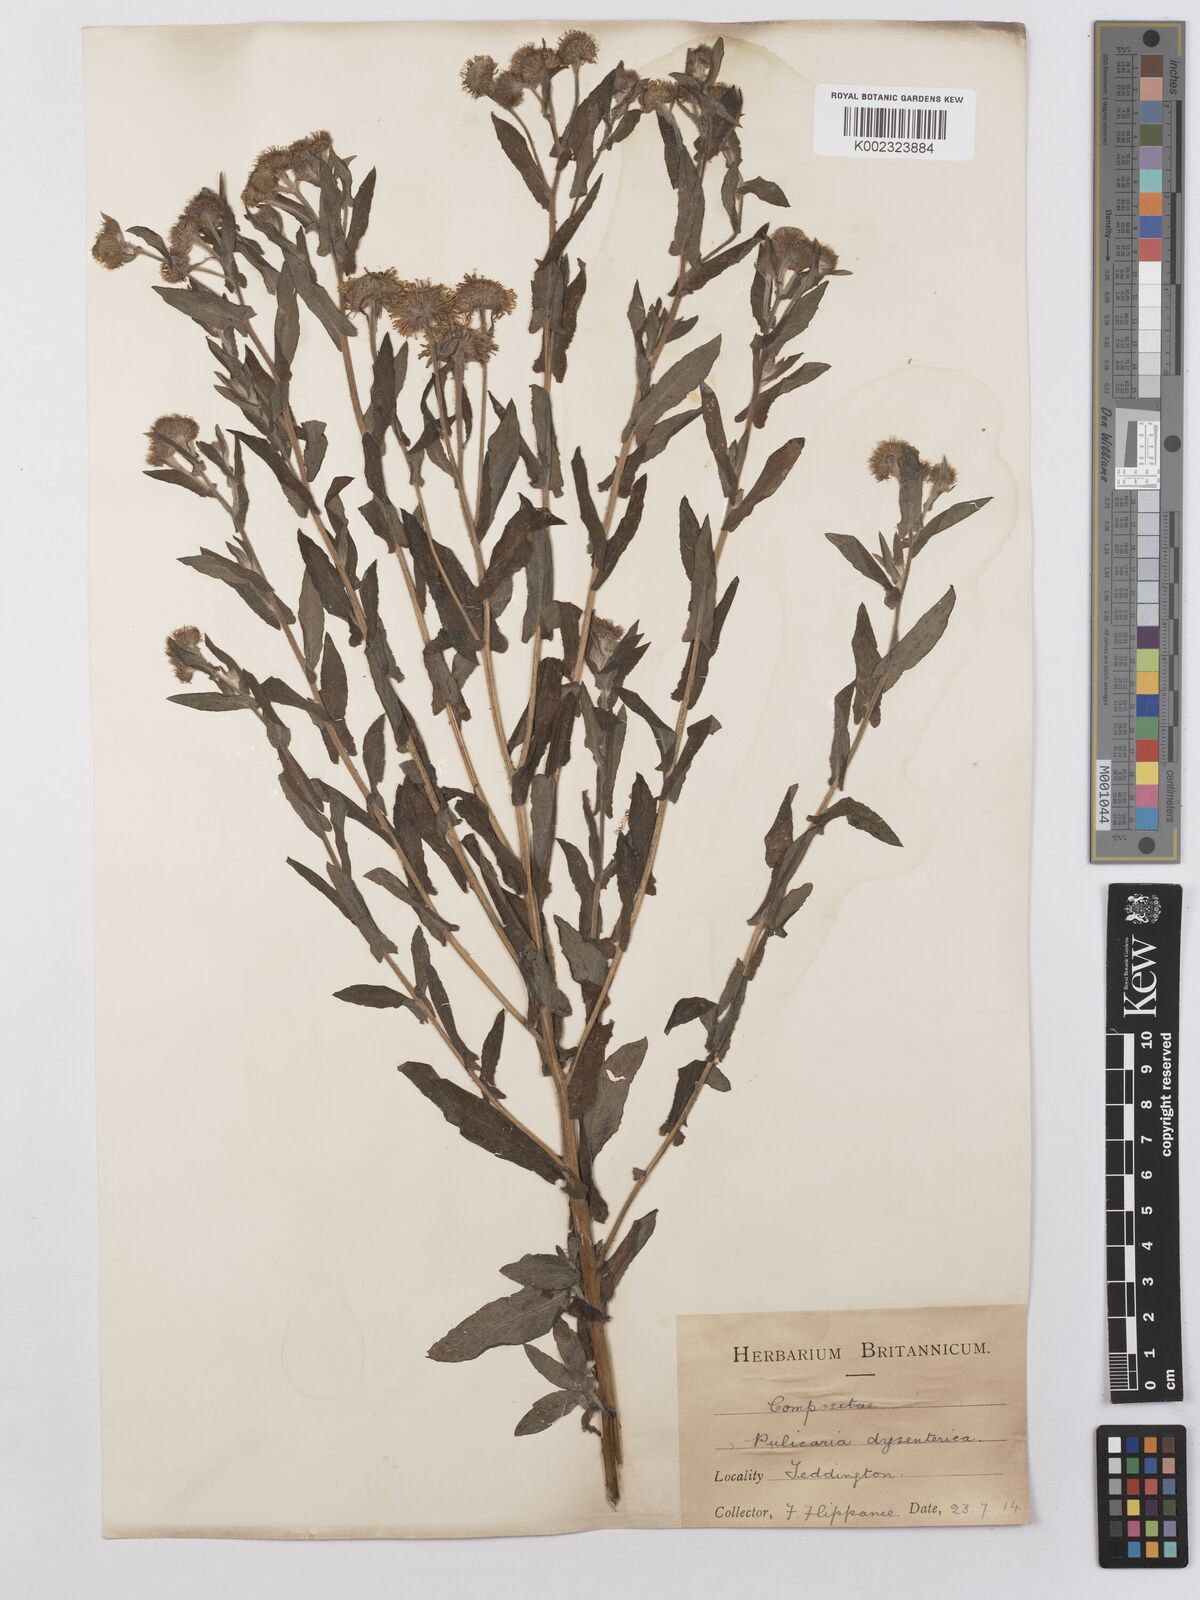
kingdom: Plantae
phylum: Tracheophyta
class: Magnoliopsida
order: Asterales
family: Asteraceae
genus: Pulicaria
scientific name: Pulicaria dysenterica
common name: Common fleabane
